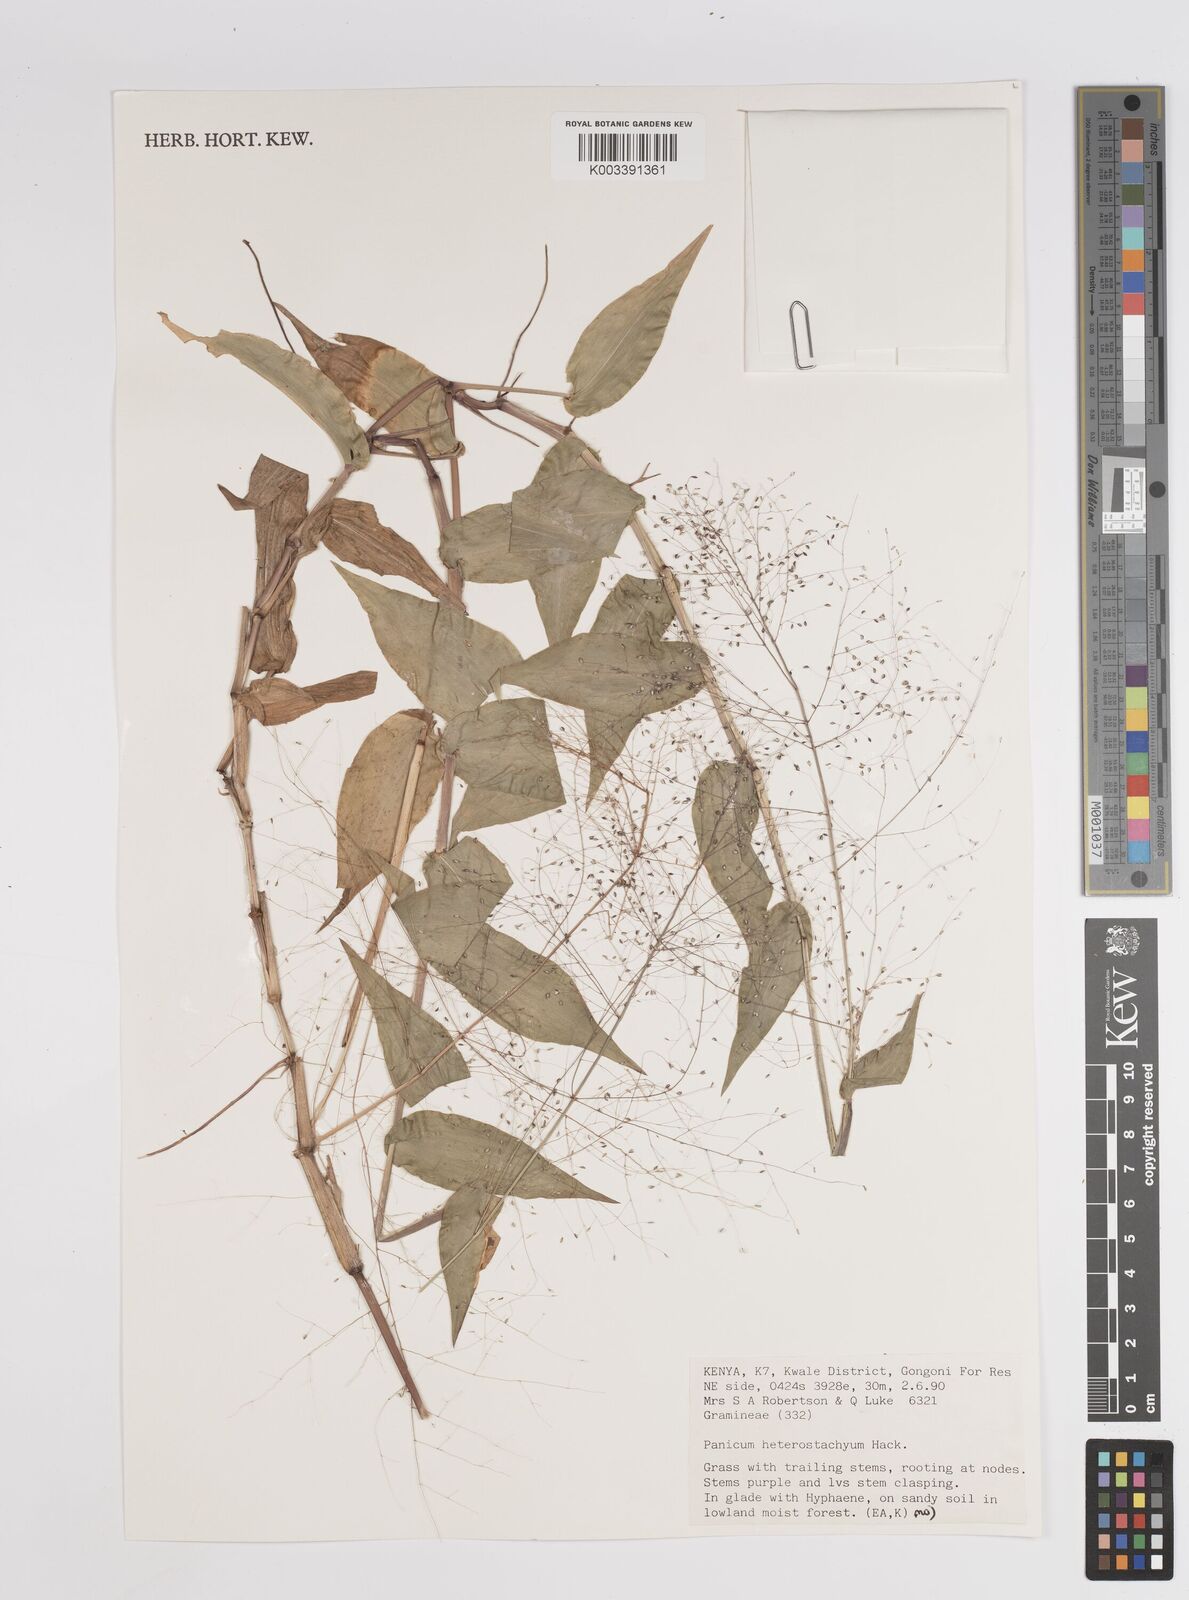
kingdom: Plantae
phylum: Tracheophyta
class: Liliopsida
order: Poales
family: Poaceae
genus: Panicum
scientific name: Panicum hirtum
